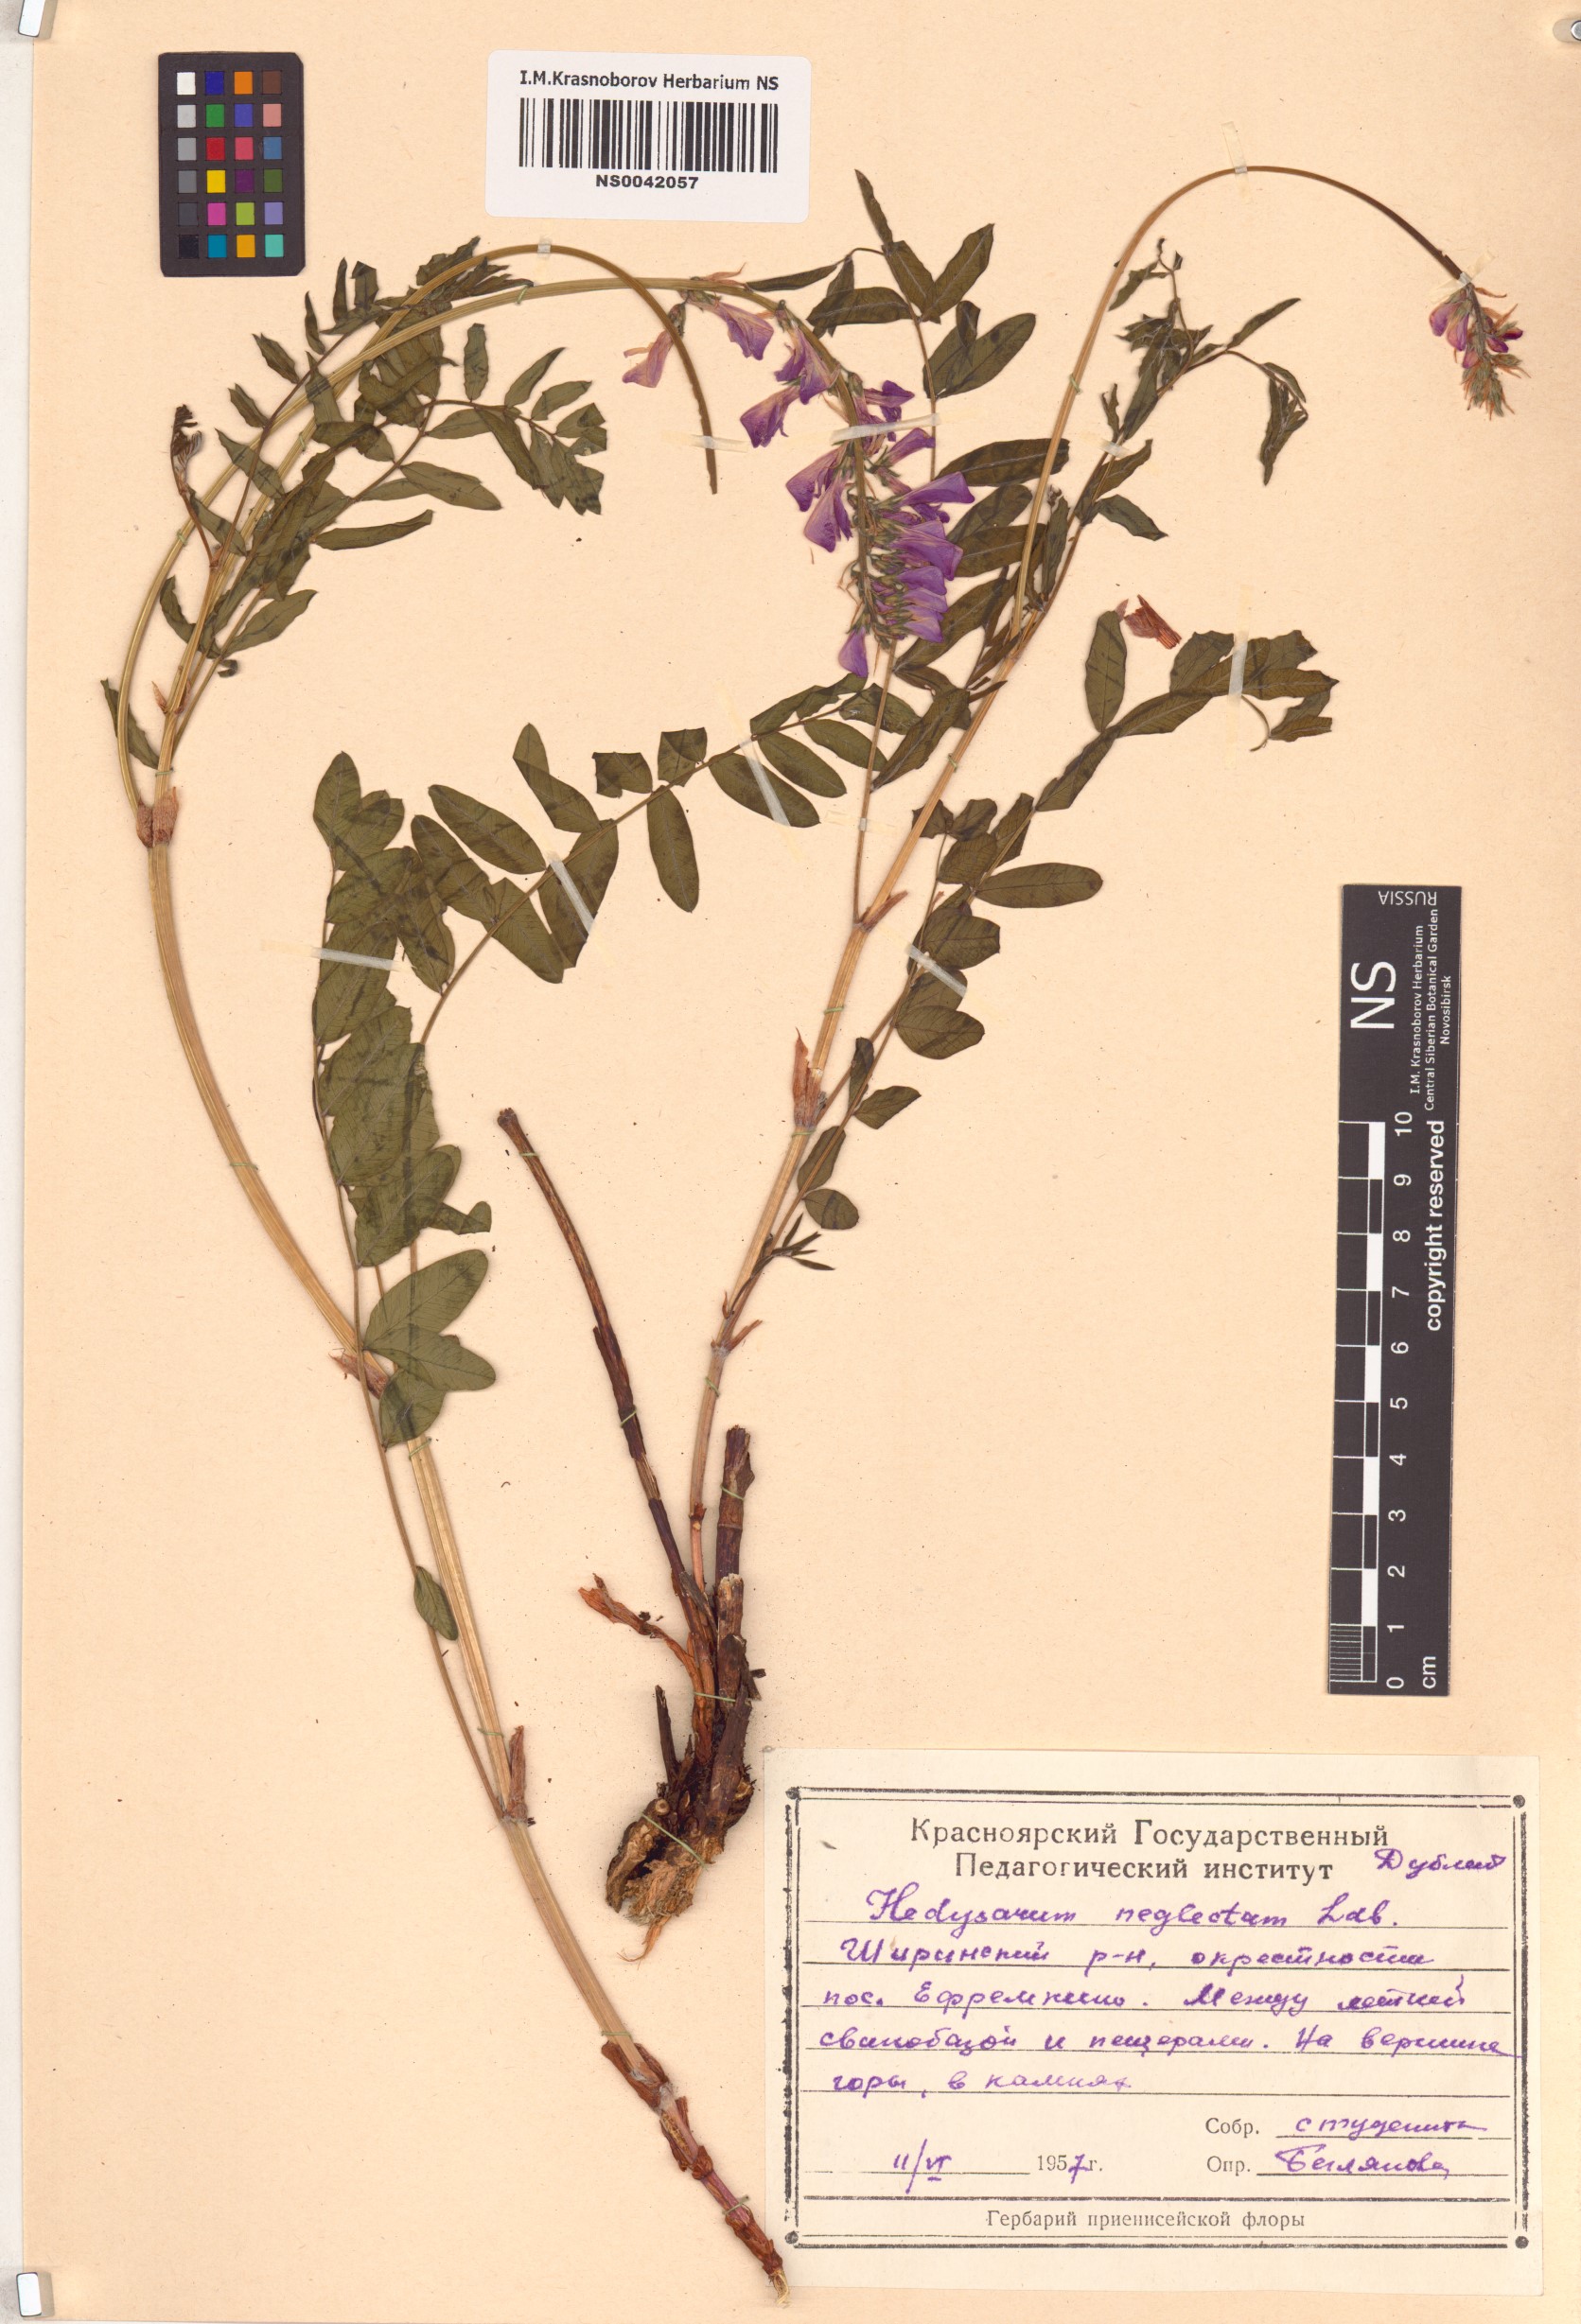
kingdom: Plantae
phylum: Tracheophyta
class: Magnoliopsida
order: Fabales
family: Fabaceae
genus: Hedysarum
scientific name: Hedysarum neglectum
